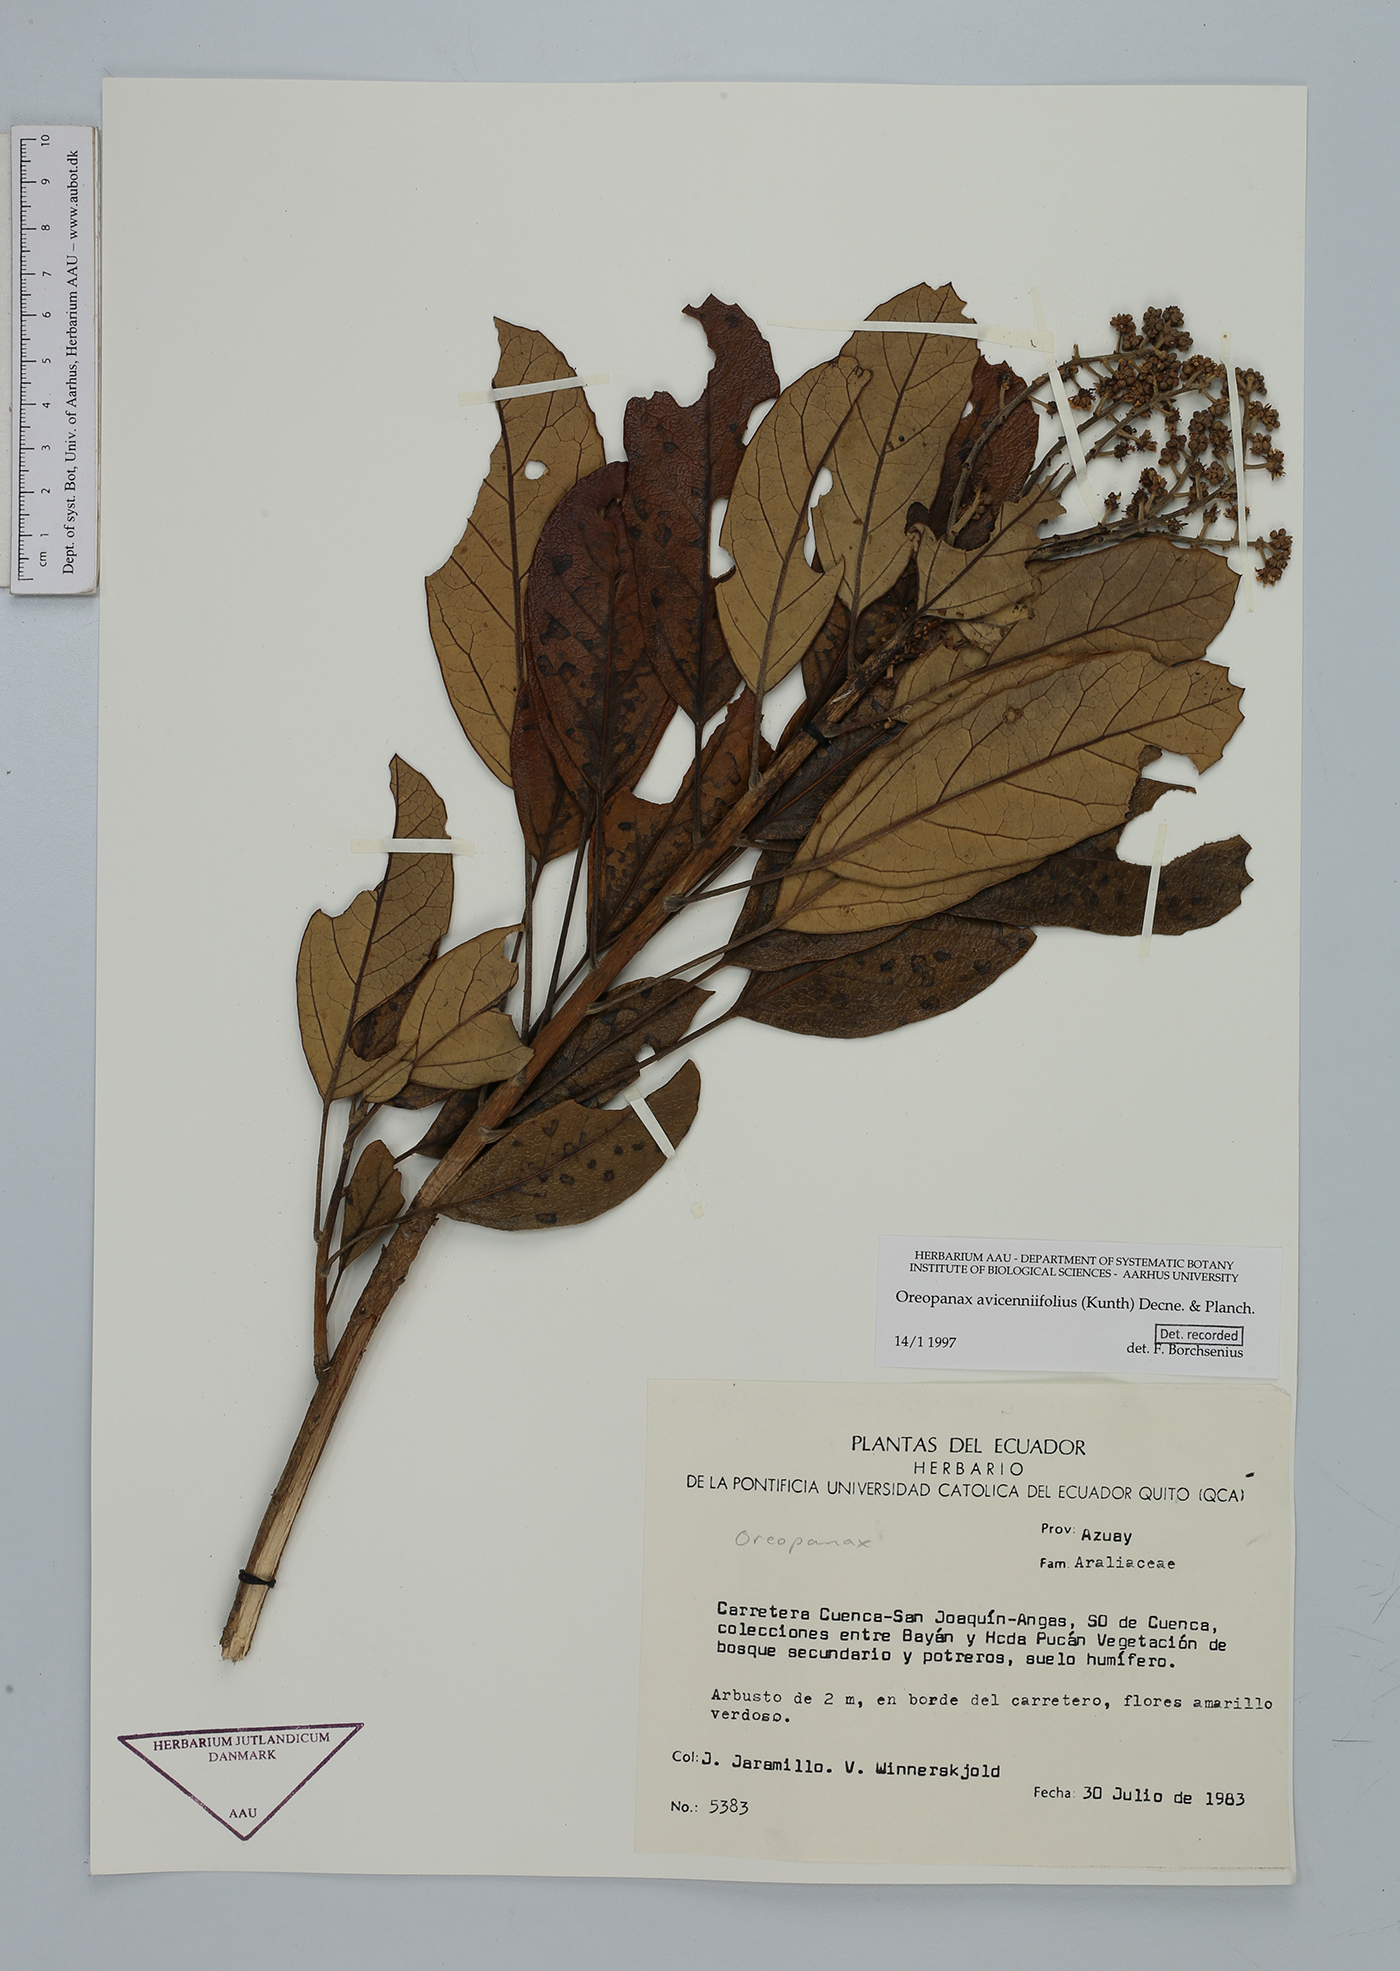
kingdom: Plantae
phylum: Tracheophyta
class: Magnoliopsida
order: Apiales
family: Araliaceae
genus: Oreopanax
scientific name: Oreopanax avicenniifolius
